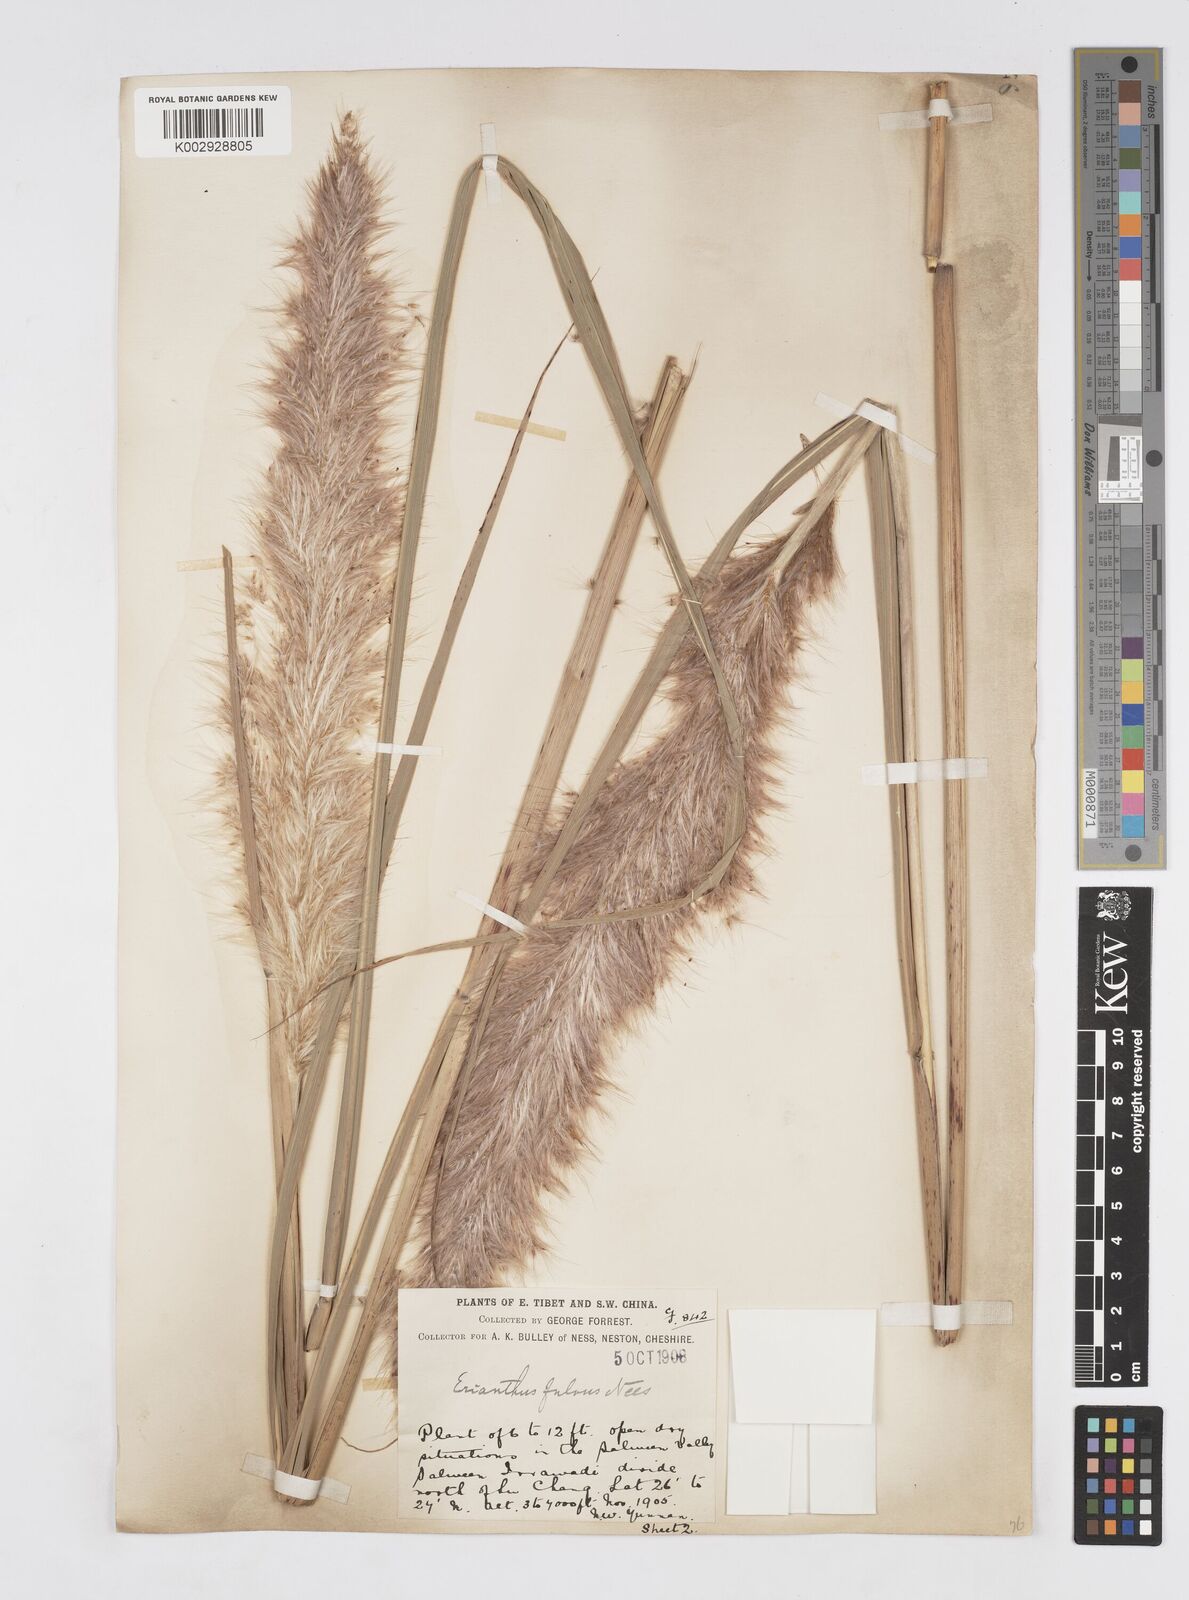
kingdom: Plantae
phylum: Tracheophyta
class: Liliopsida
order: Poales
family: Poaceae
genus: Tripidium
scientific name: Tripidium rufipilum
